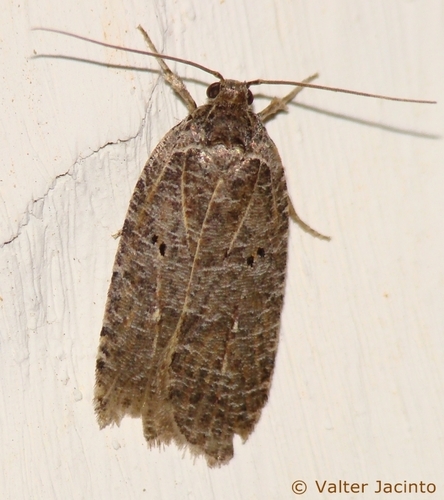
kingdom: Animalia
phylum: Arthropoda
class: Insecta
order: Lepidoptera
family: Depressariidae
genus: Agonopterix
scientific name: Agonopterix rutana
